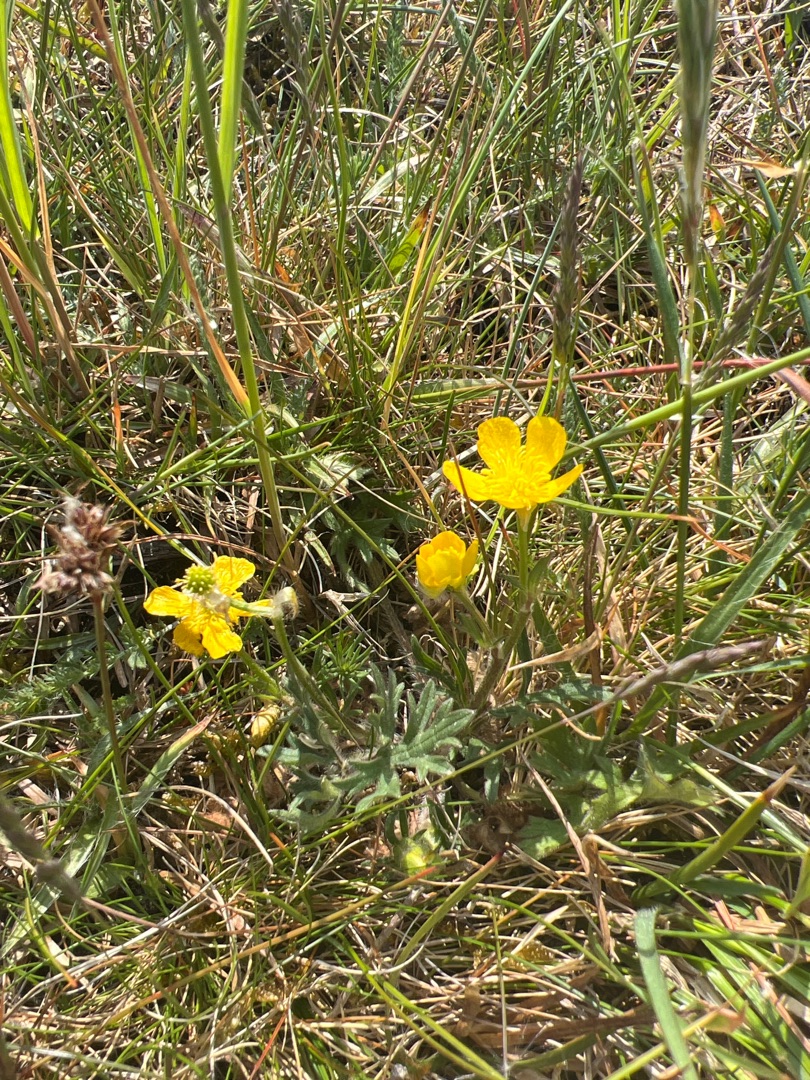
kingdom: Plantae
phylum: Tracheophyta
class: Magnoliopsida
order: Ranunculales
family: Ranunculaceae
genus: Ranunculus
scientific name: Ranunculus bulbosus
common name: Knold-ranunkel
